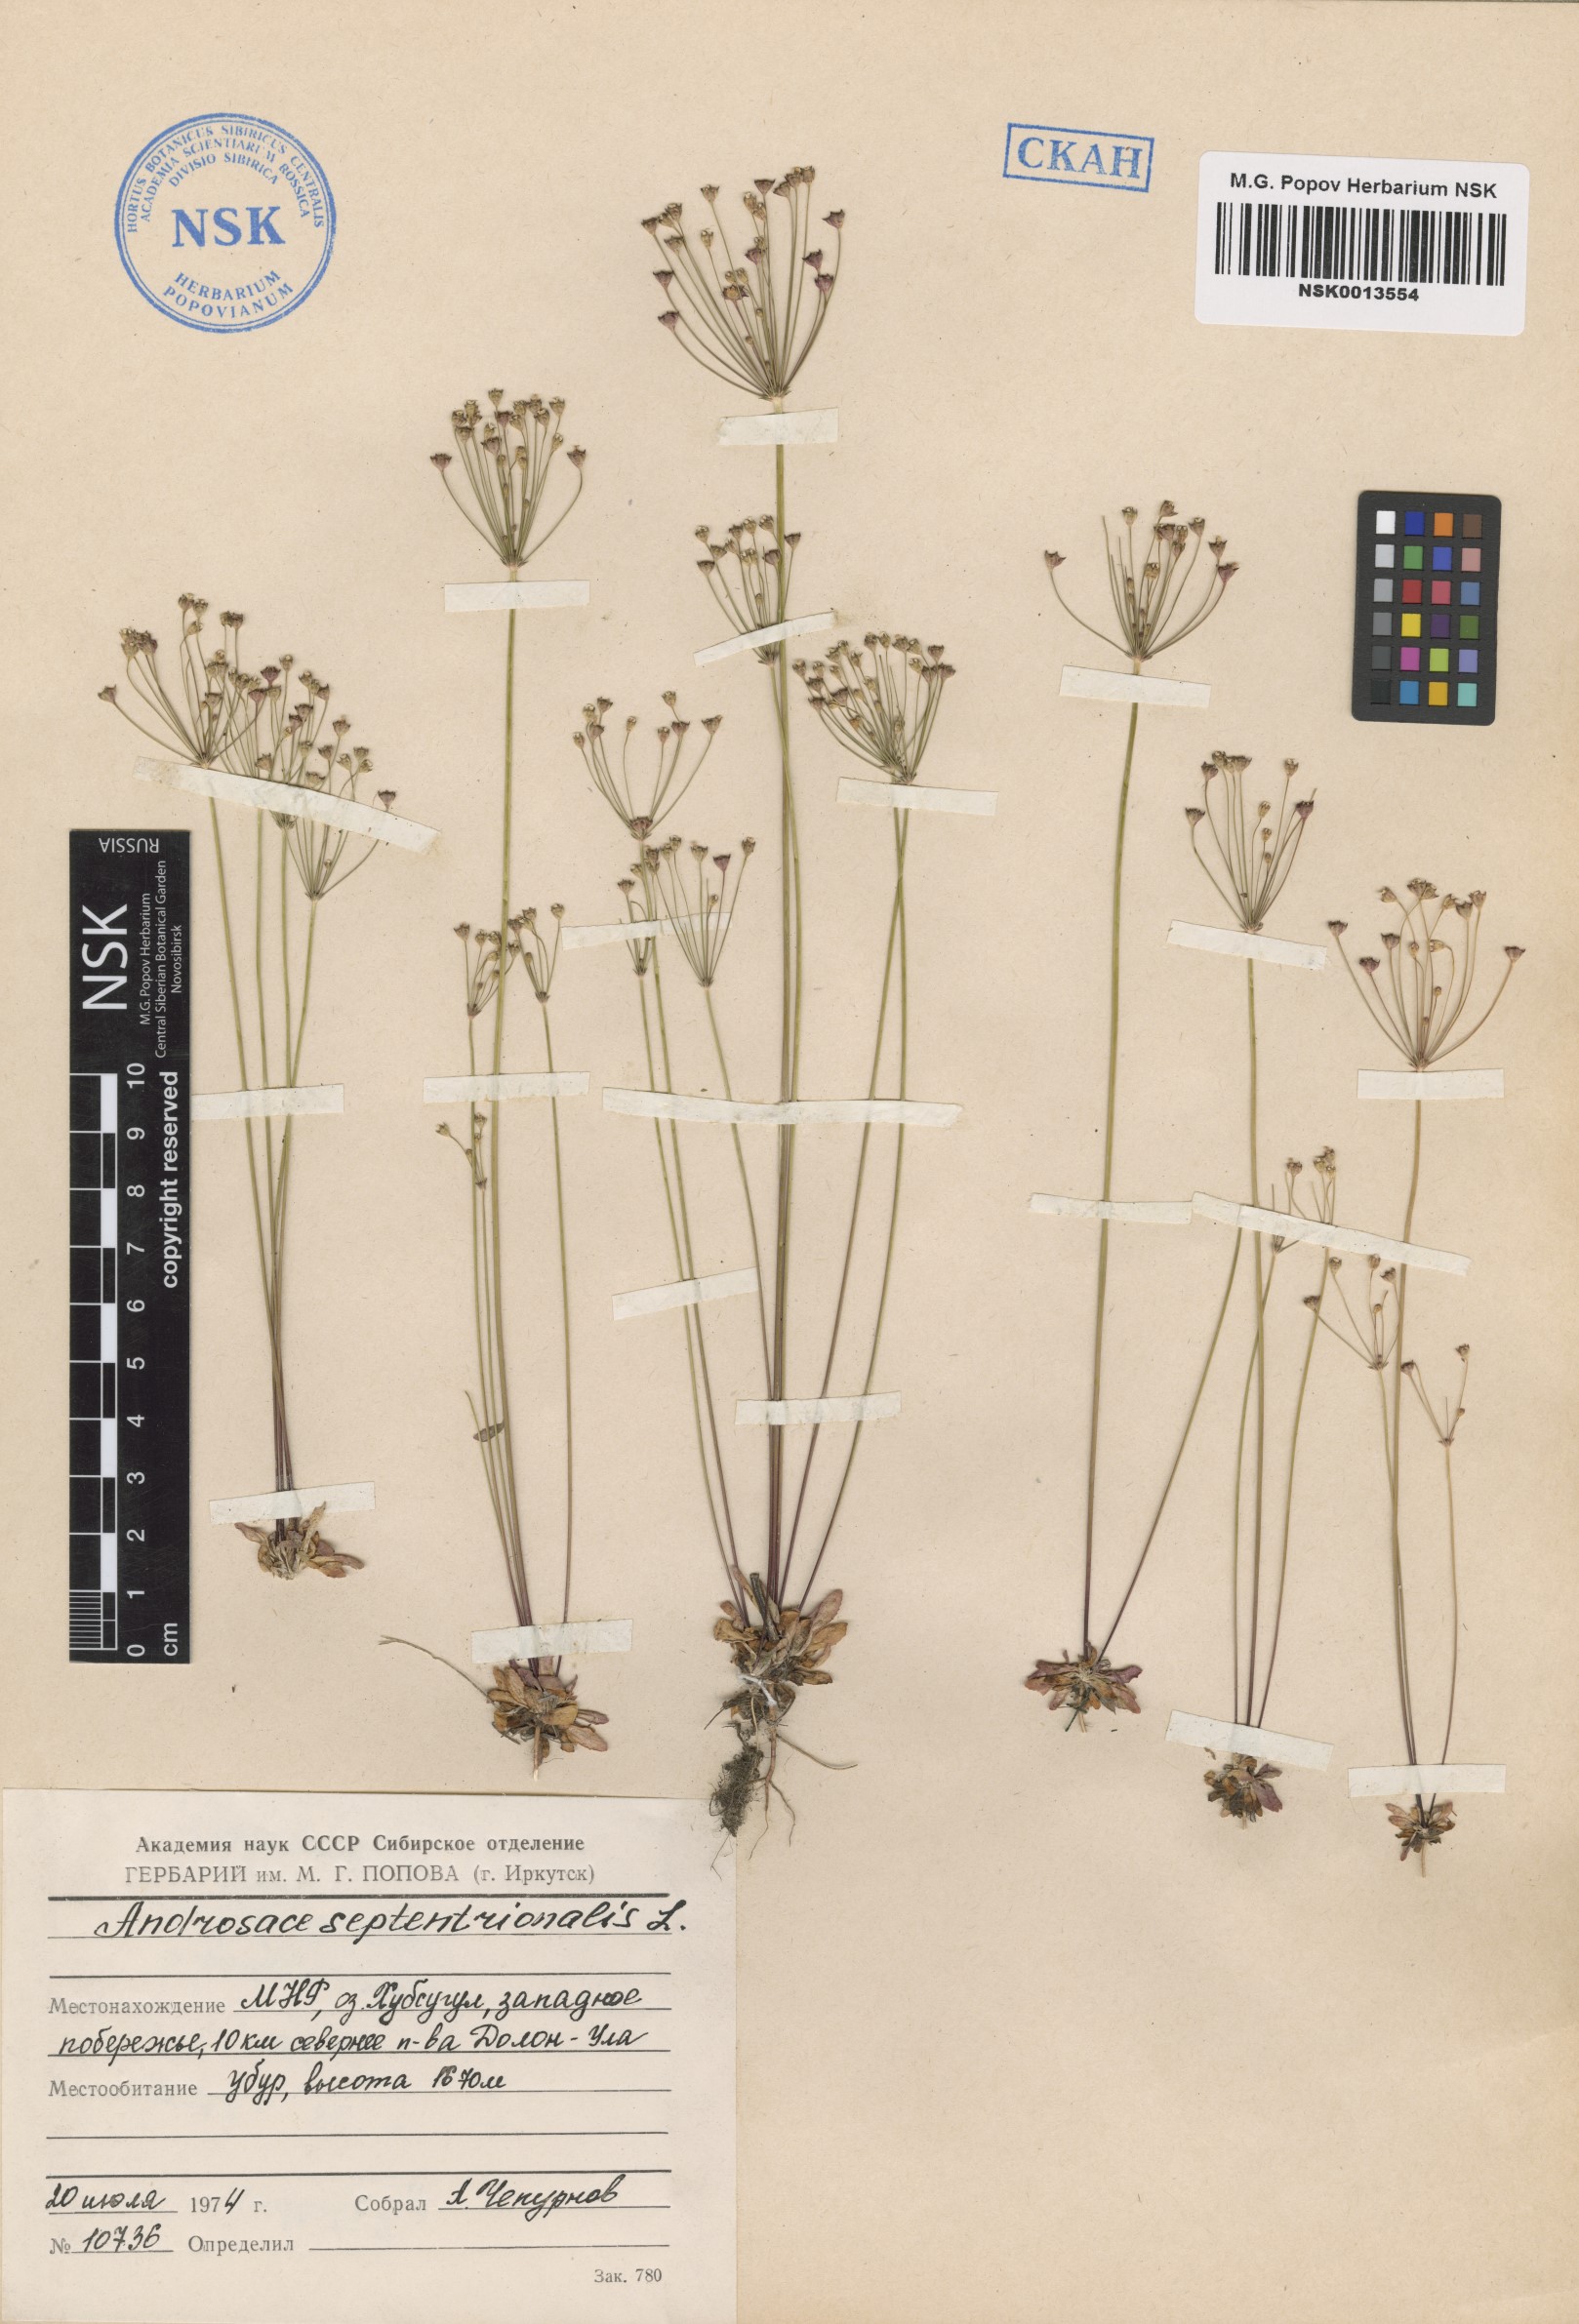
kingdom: Plantae
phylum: Tracheophyta
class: Magnoliopsida
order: Ericales
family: Primulaceae
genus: Androsace
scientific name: Androsace septentrionalis
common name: Hairy northern fairy-candelabra
